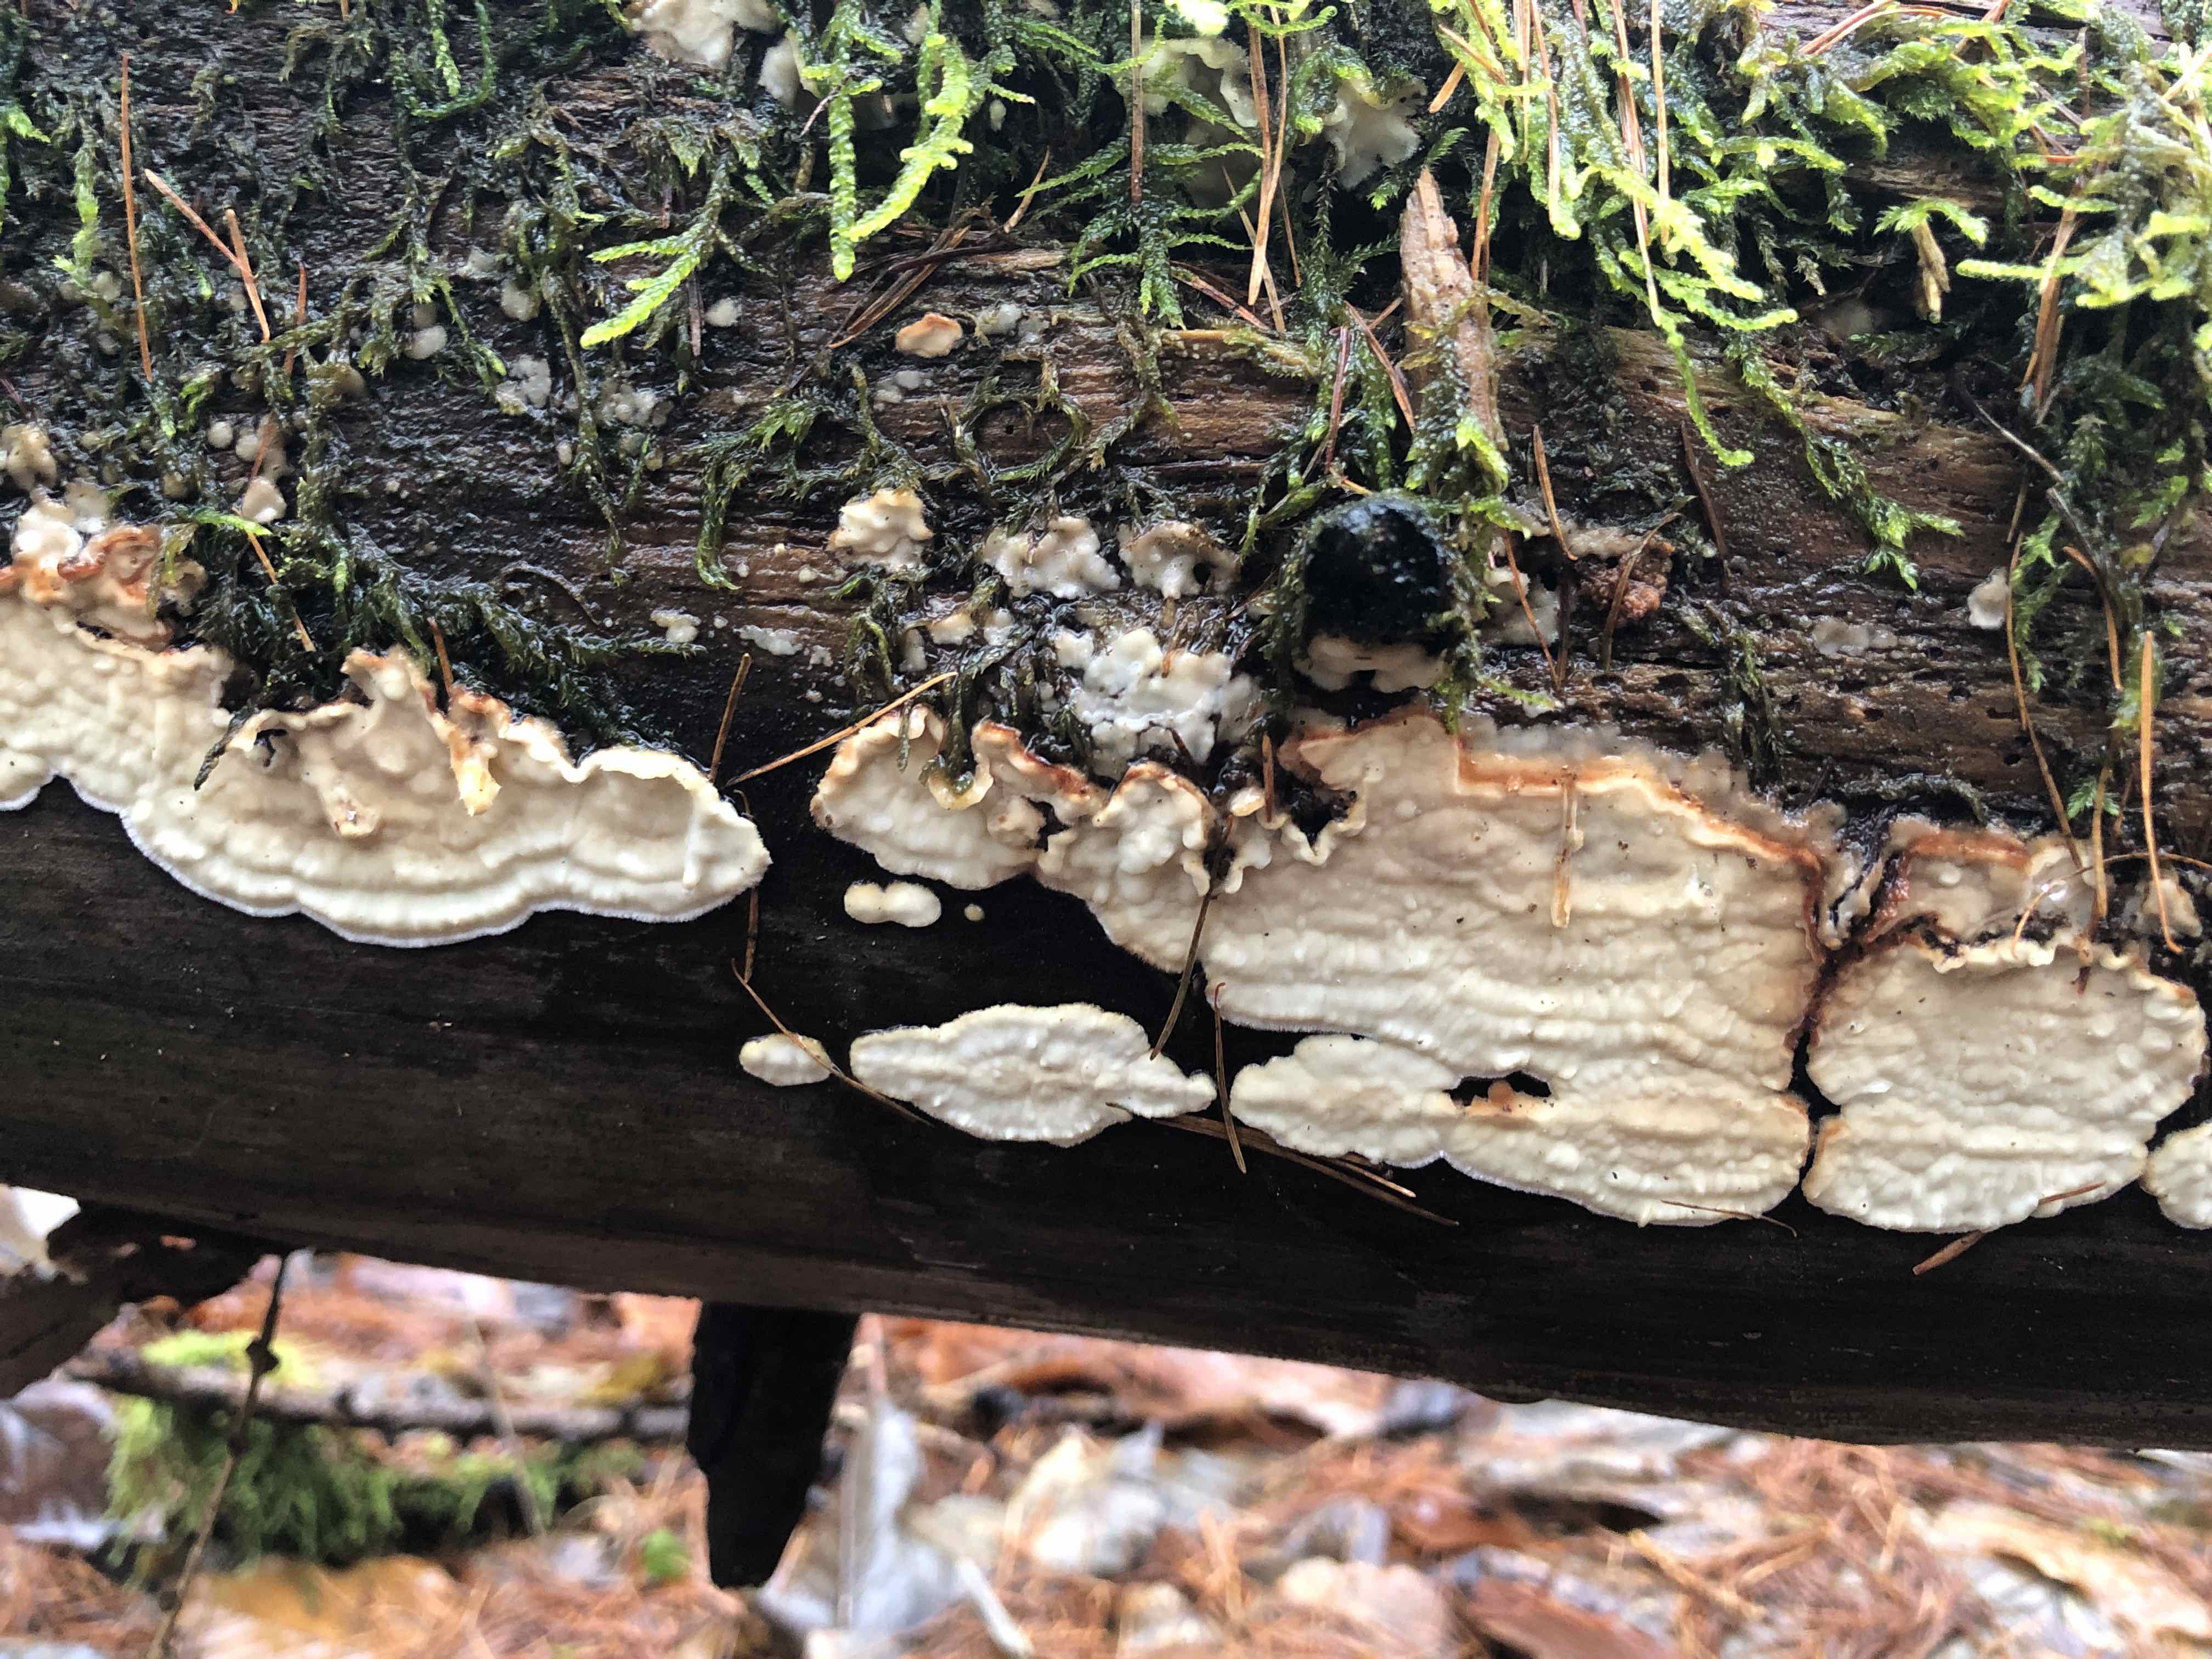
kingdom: Fungi
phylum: Basidiomycota
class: Agaricomycetes
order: Polyporales
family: Dacryobolaceae
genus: Dacryobolus
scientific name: Dacryobolus karstenii
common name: glat vulkanskorpe
